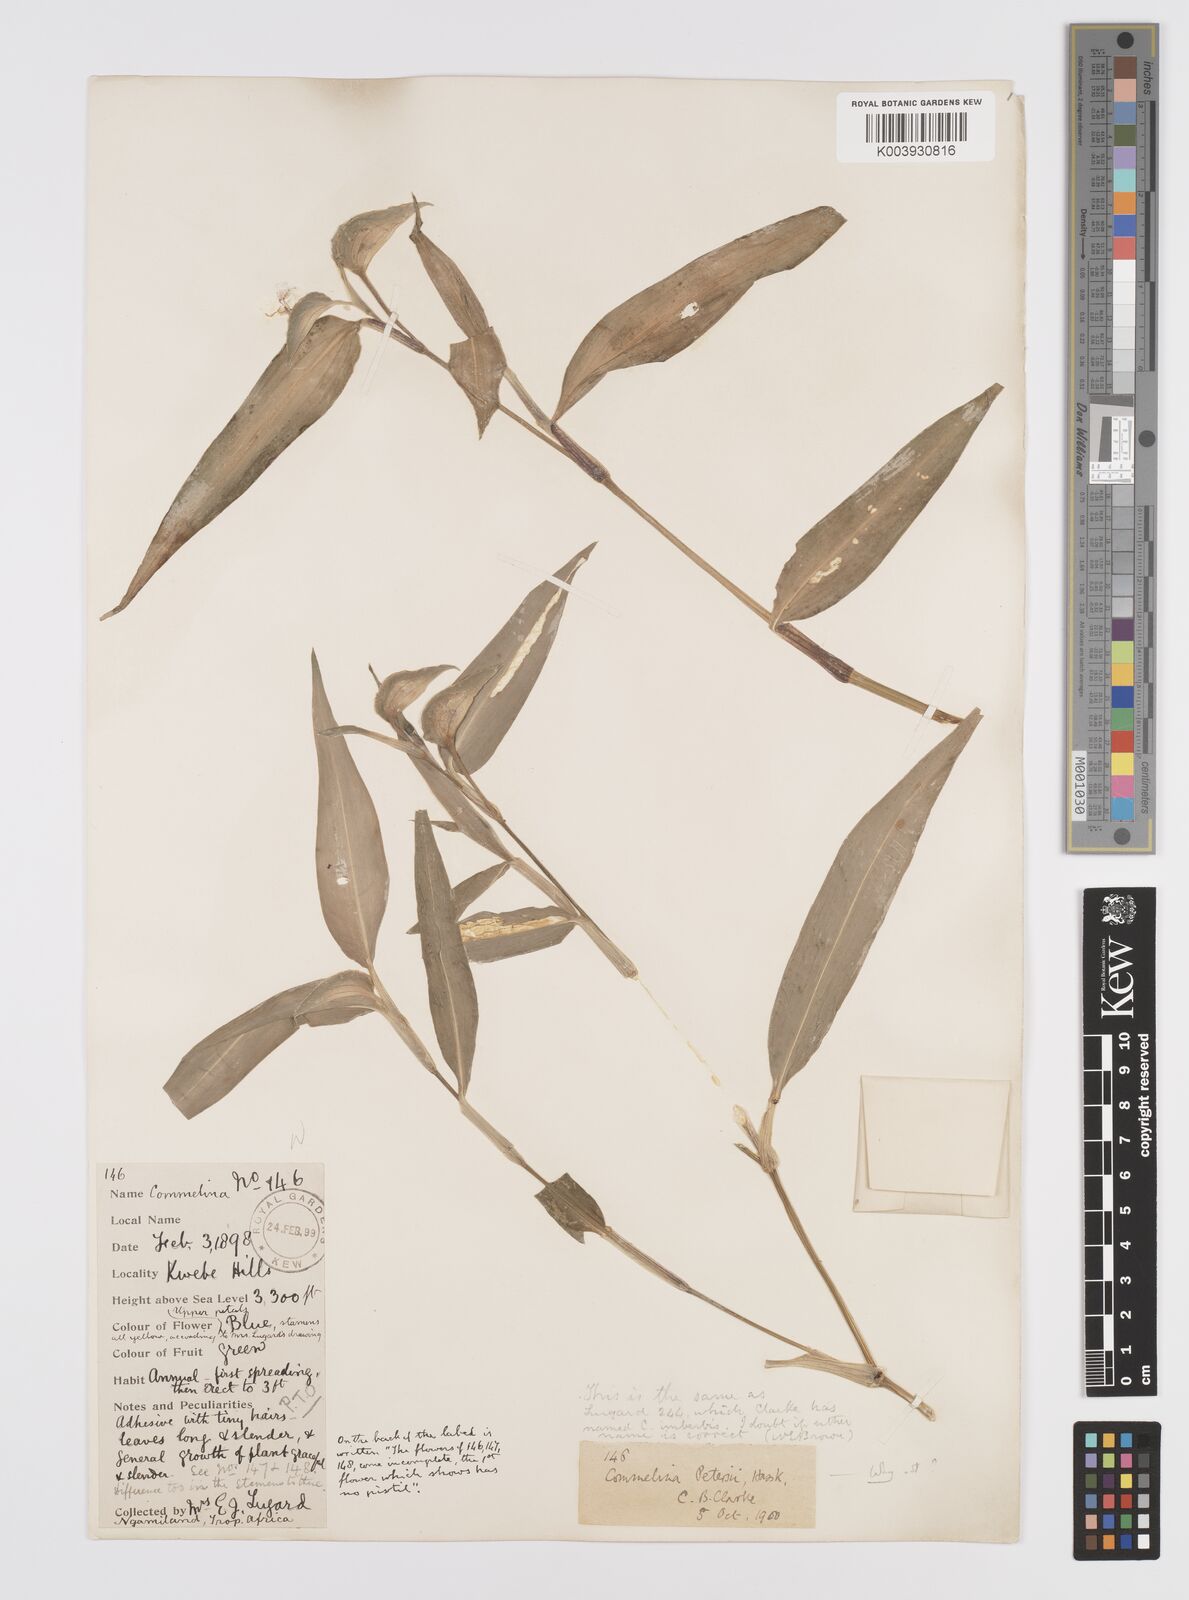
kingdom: Plantae
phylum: Tracheophyta
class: Liliopsida
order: Commelinales
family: Commelinaceae
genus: Commelina
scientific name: Commelina petersii
